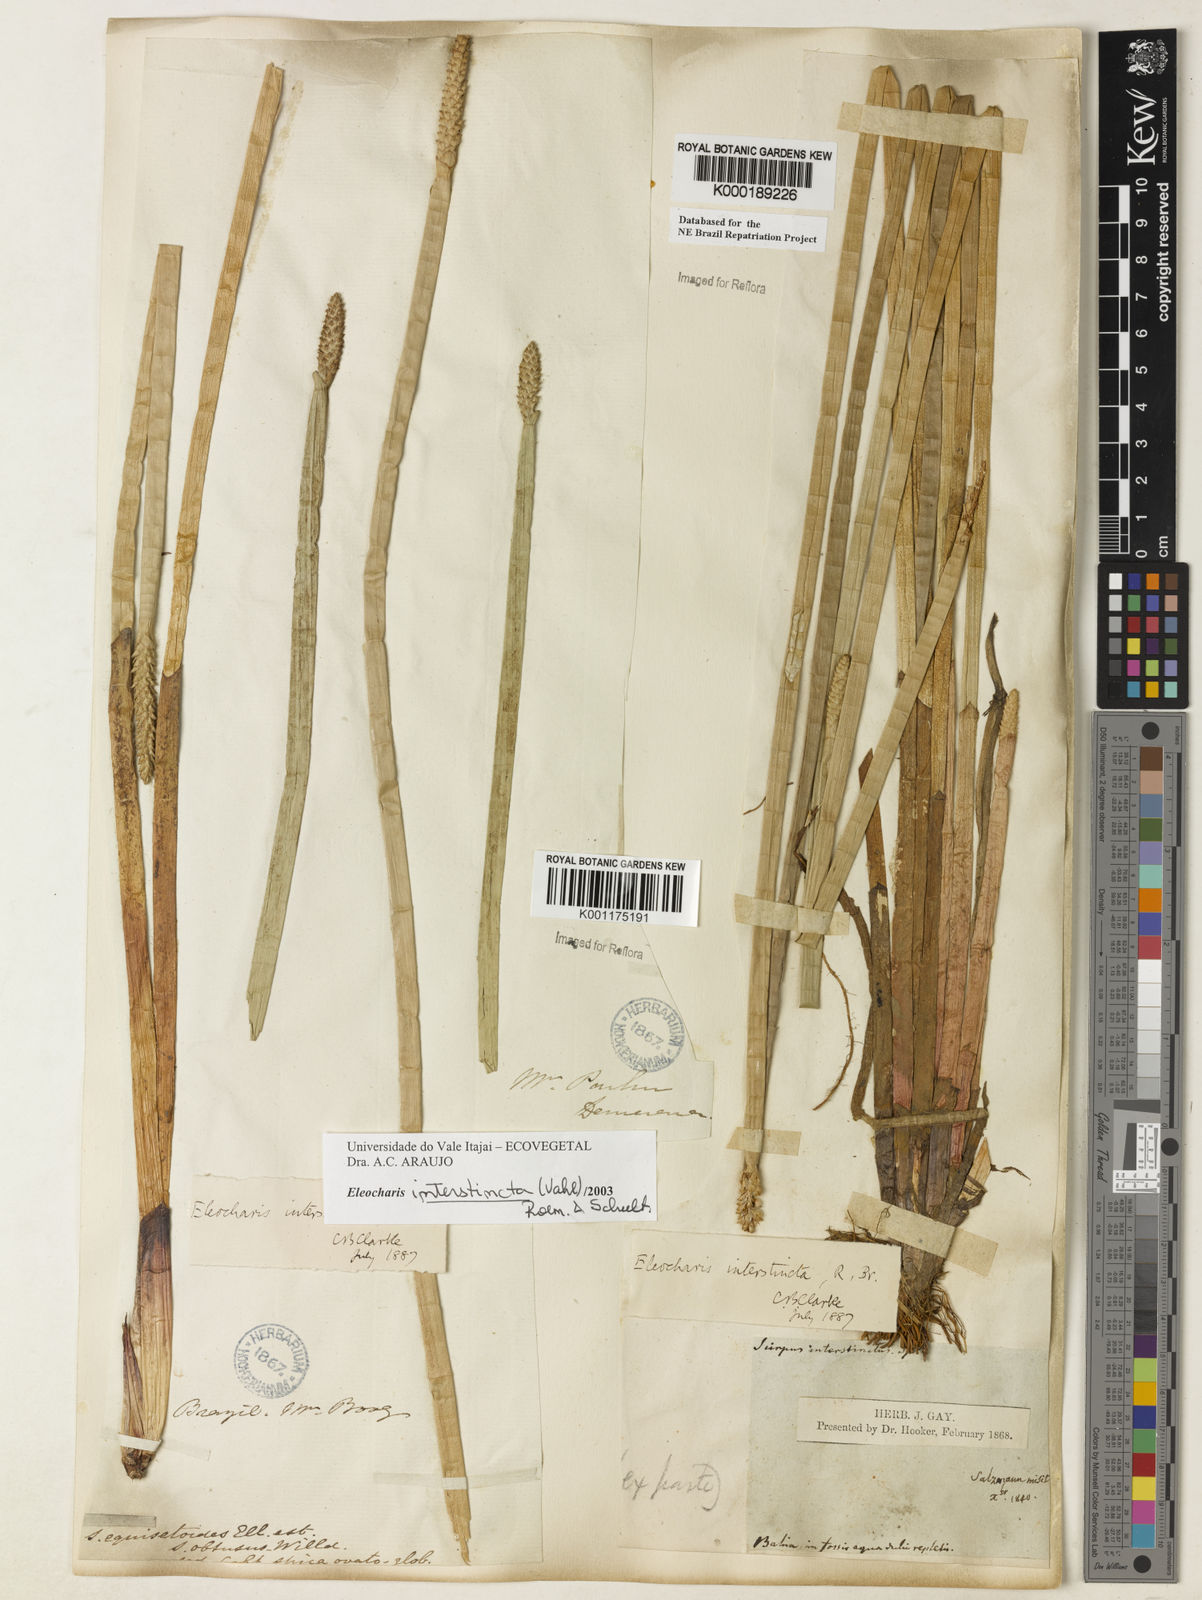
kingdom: Plantae
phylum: Tracheophyta
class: Liliopsida
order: Poales
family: Cyperaceae
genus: Eleocharis
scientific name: Eleocharis interstincta
